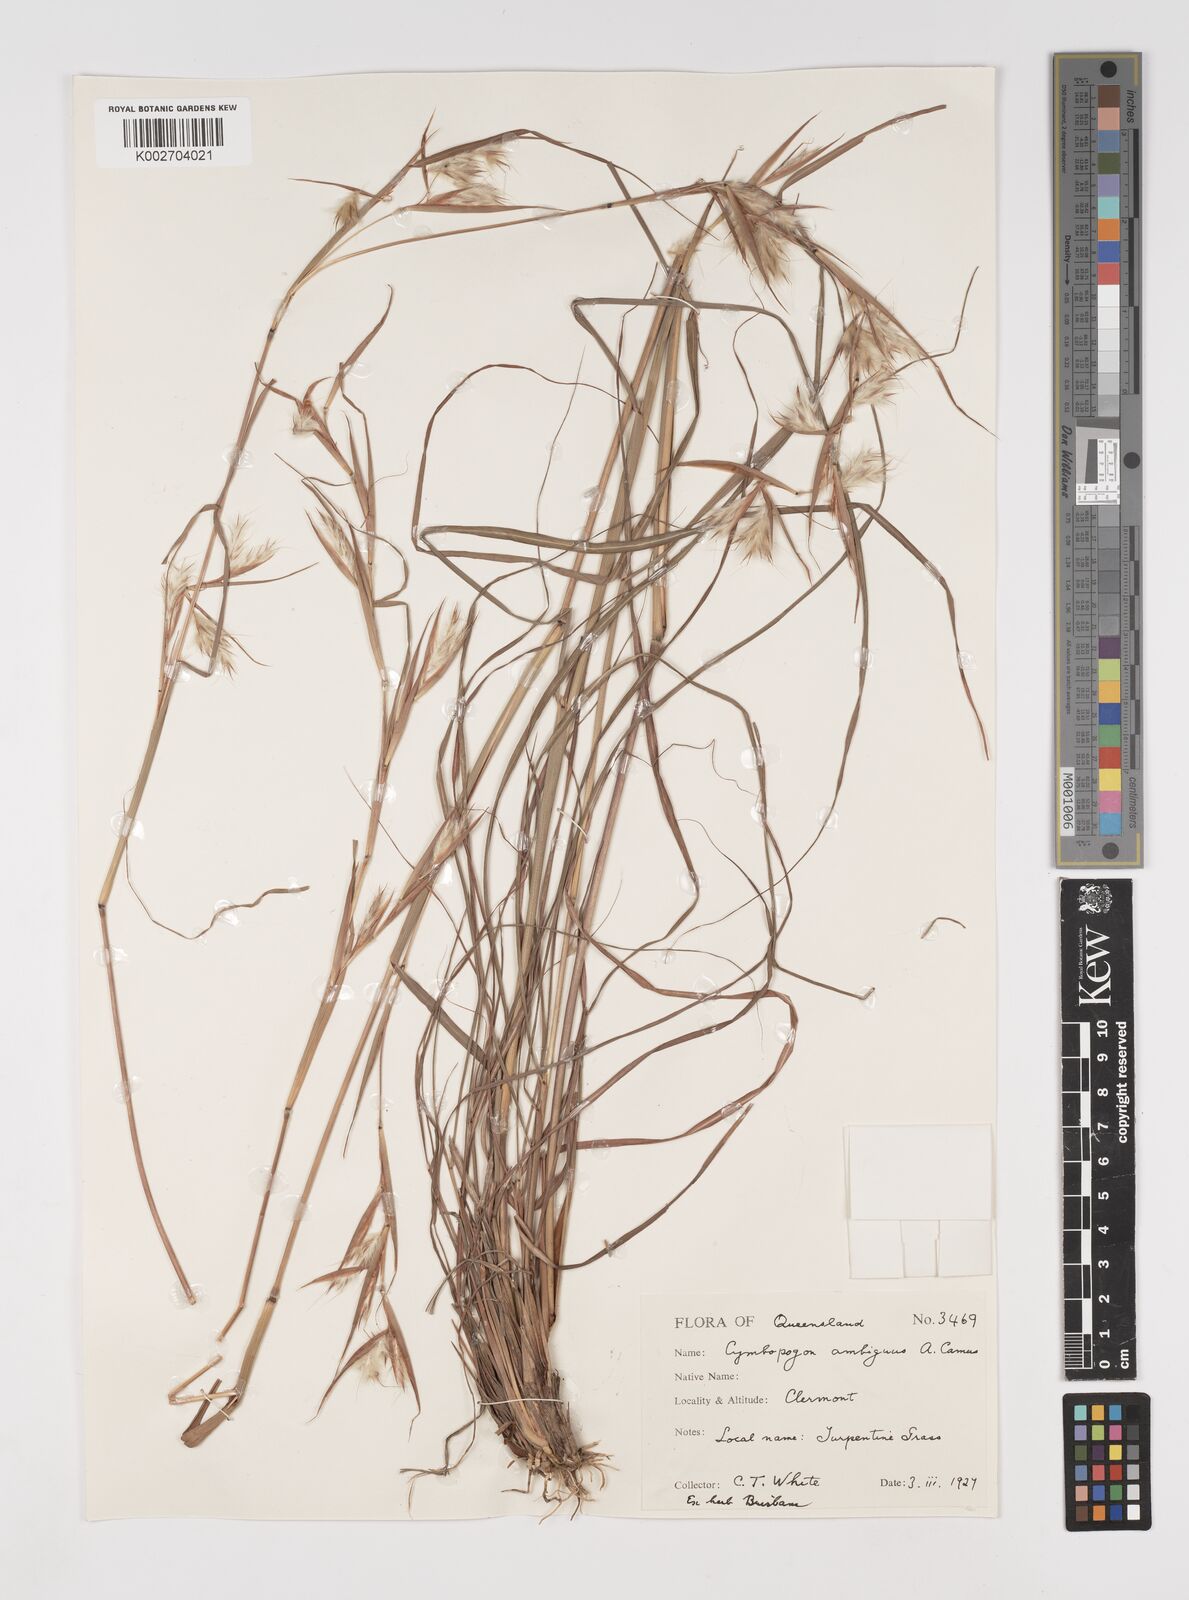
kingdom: Plantae
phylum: Tracheophyta
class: Liliopsida
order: Poales
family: Poaceae
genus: Cymbopogon
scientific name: Cymbopogon ambiguus
